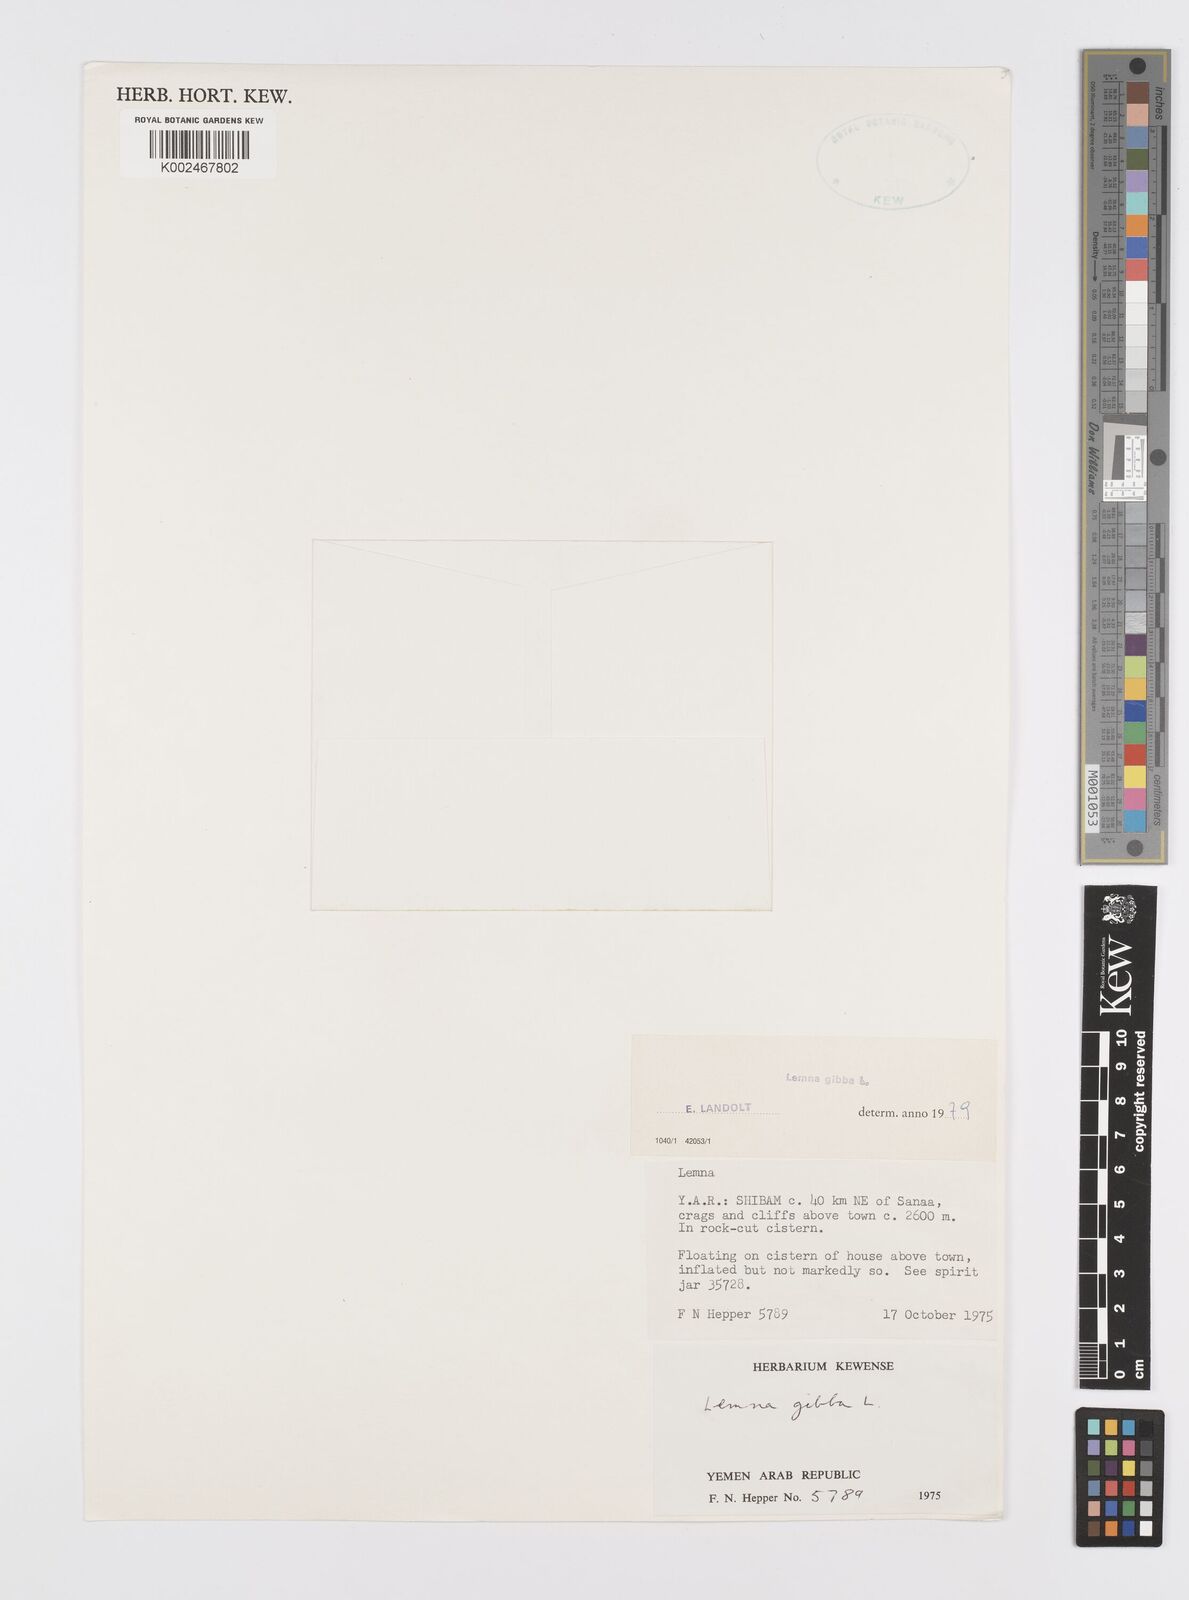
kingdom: Plantae
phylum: Tracheophyta
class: Liliopsida
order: Alismatales
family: Araceae
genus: Lemna
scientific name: Lemna gibba
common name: Fat duckweed
